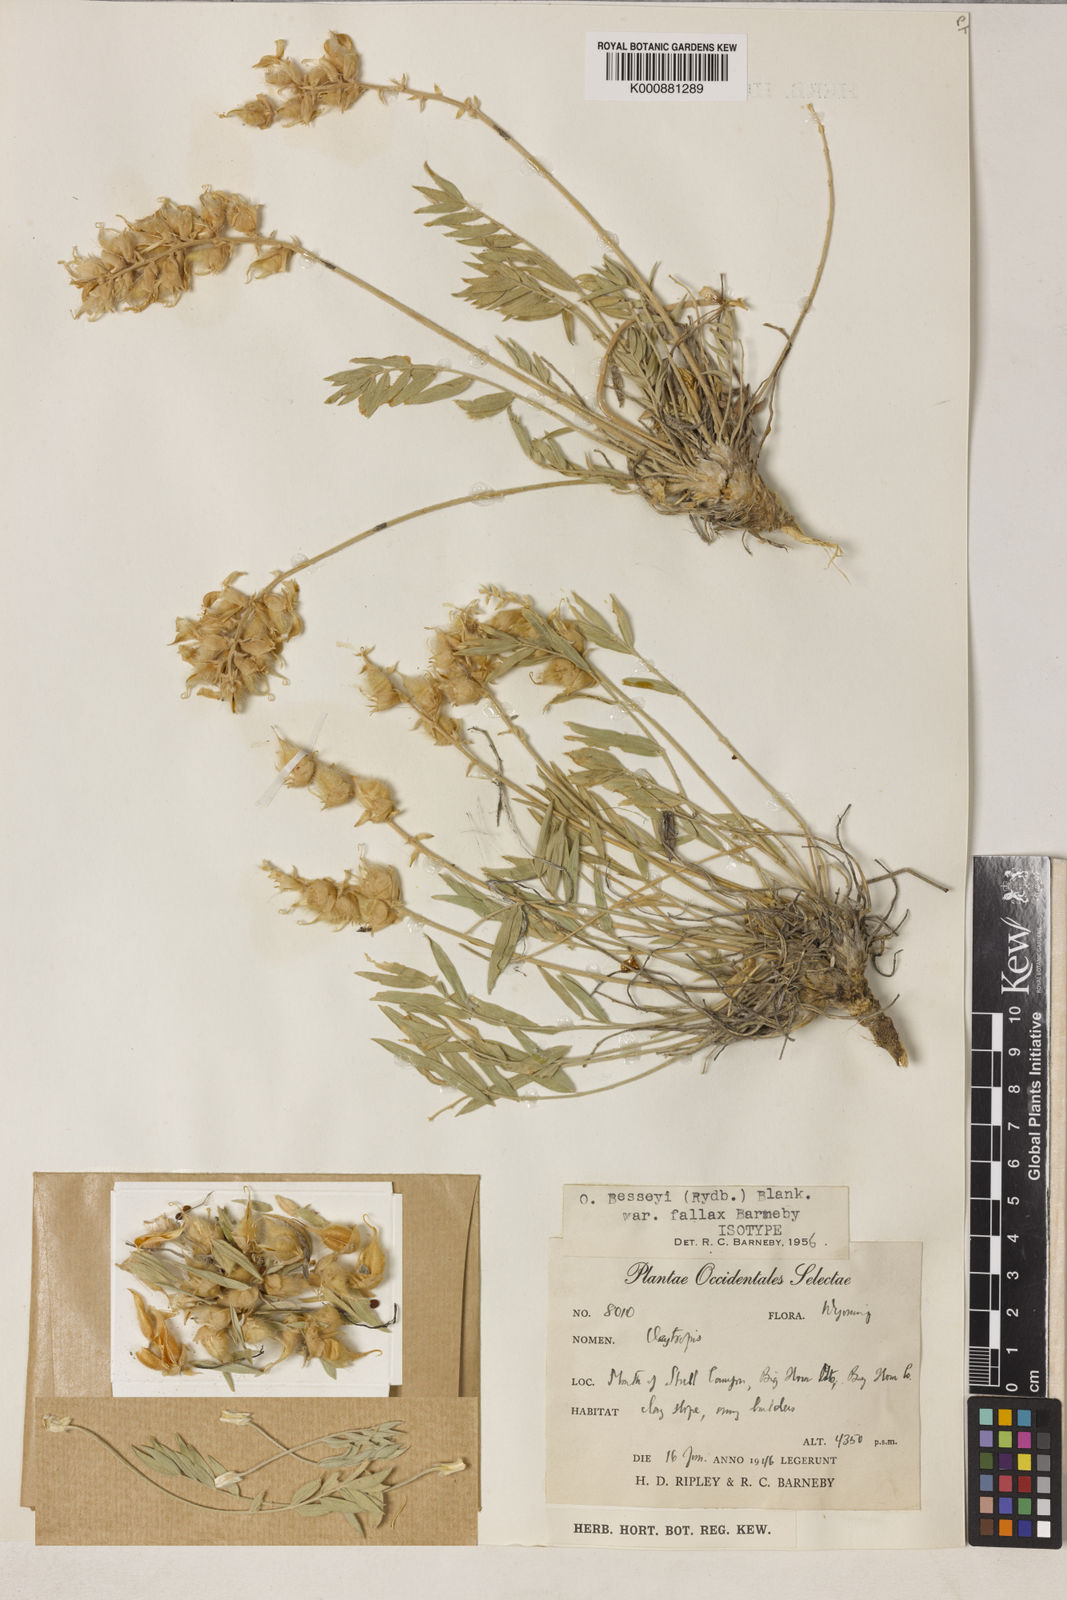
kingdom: Plantae
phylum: Tracheophyta
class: Magnoliopsida
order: Fabales
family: Fabaceae
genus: Oxytropis
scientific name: Oxytropis besseyi
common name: Bessey's locoweed
